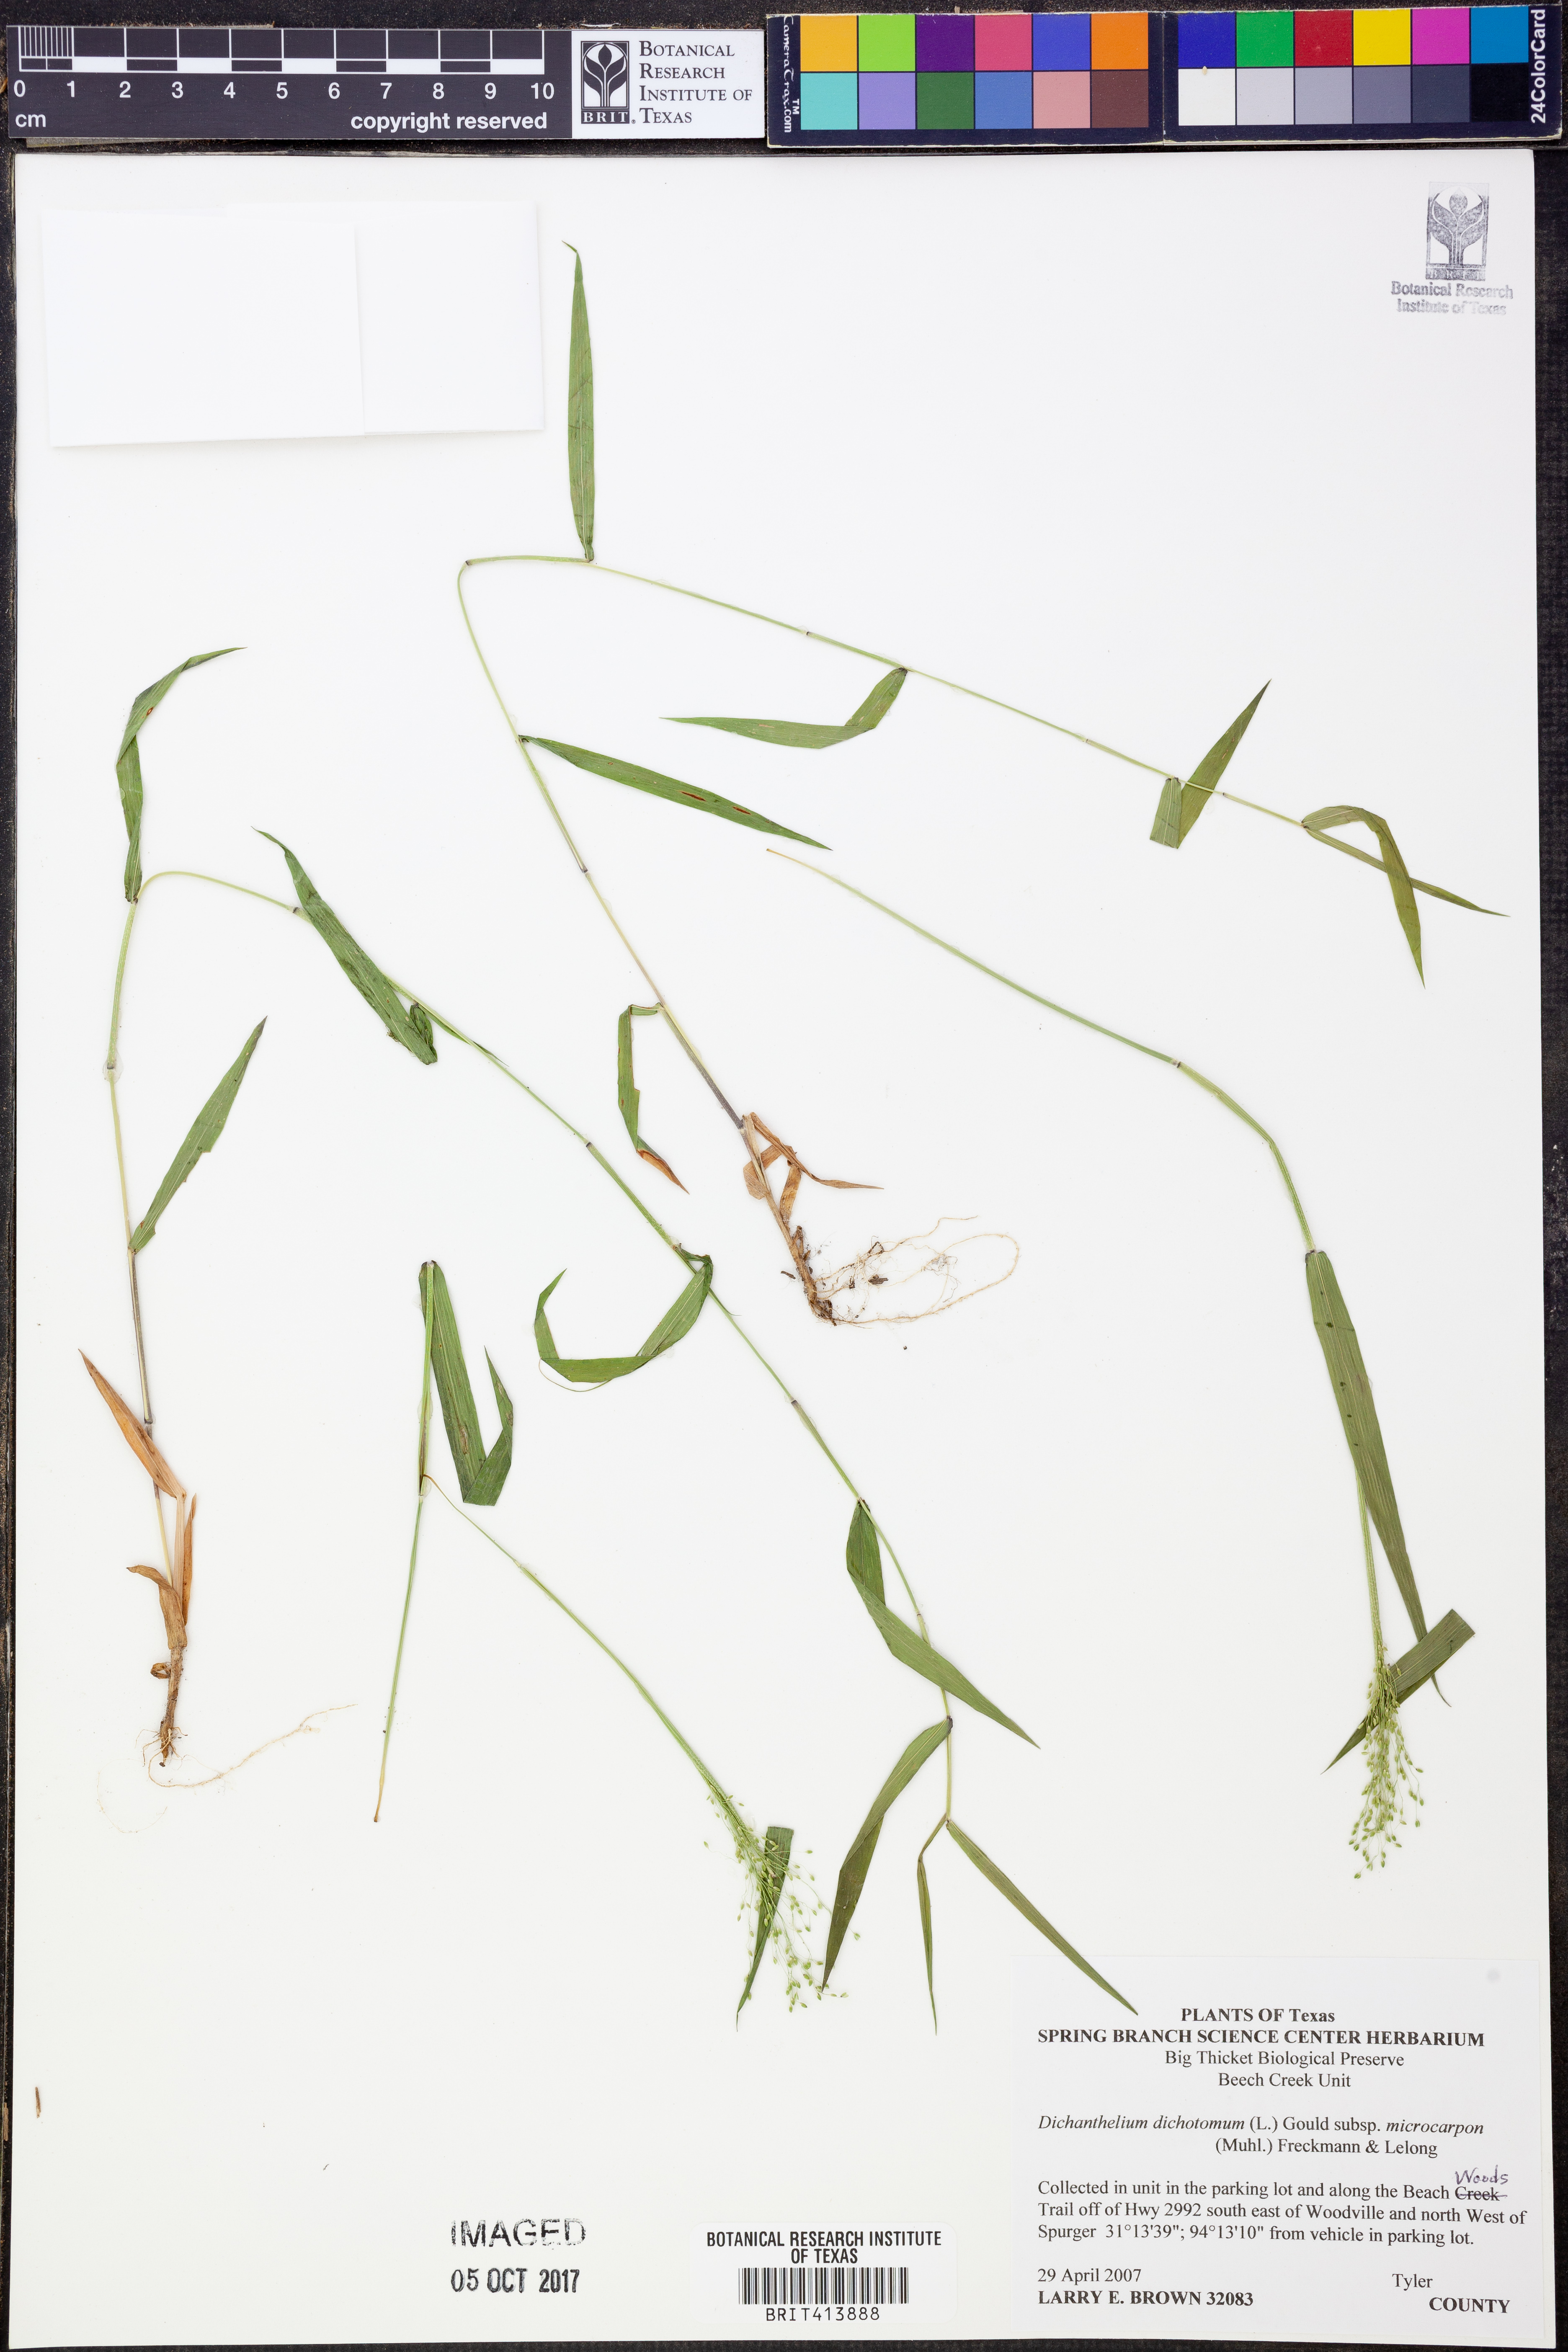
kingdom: Plantae
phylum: Tracheophyta
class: Liliopsida
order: Poales
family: Poaceae
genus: Dichanthelium
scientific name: Dichanthelium microcarpon
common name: Small-fruited witchgrass
